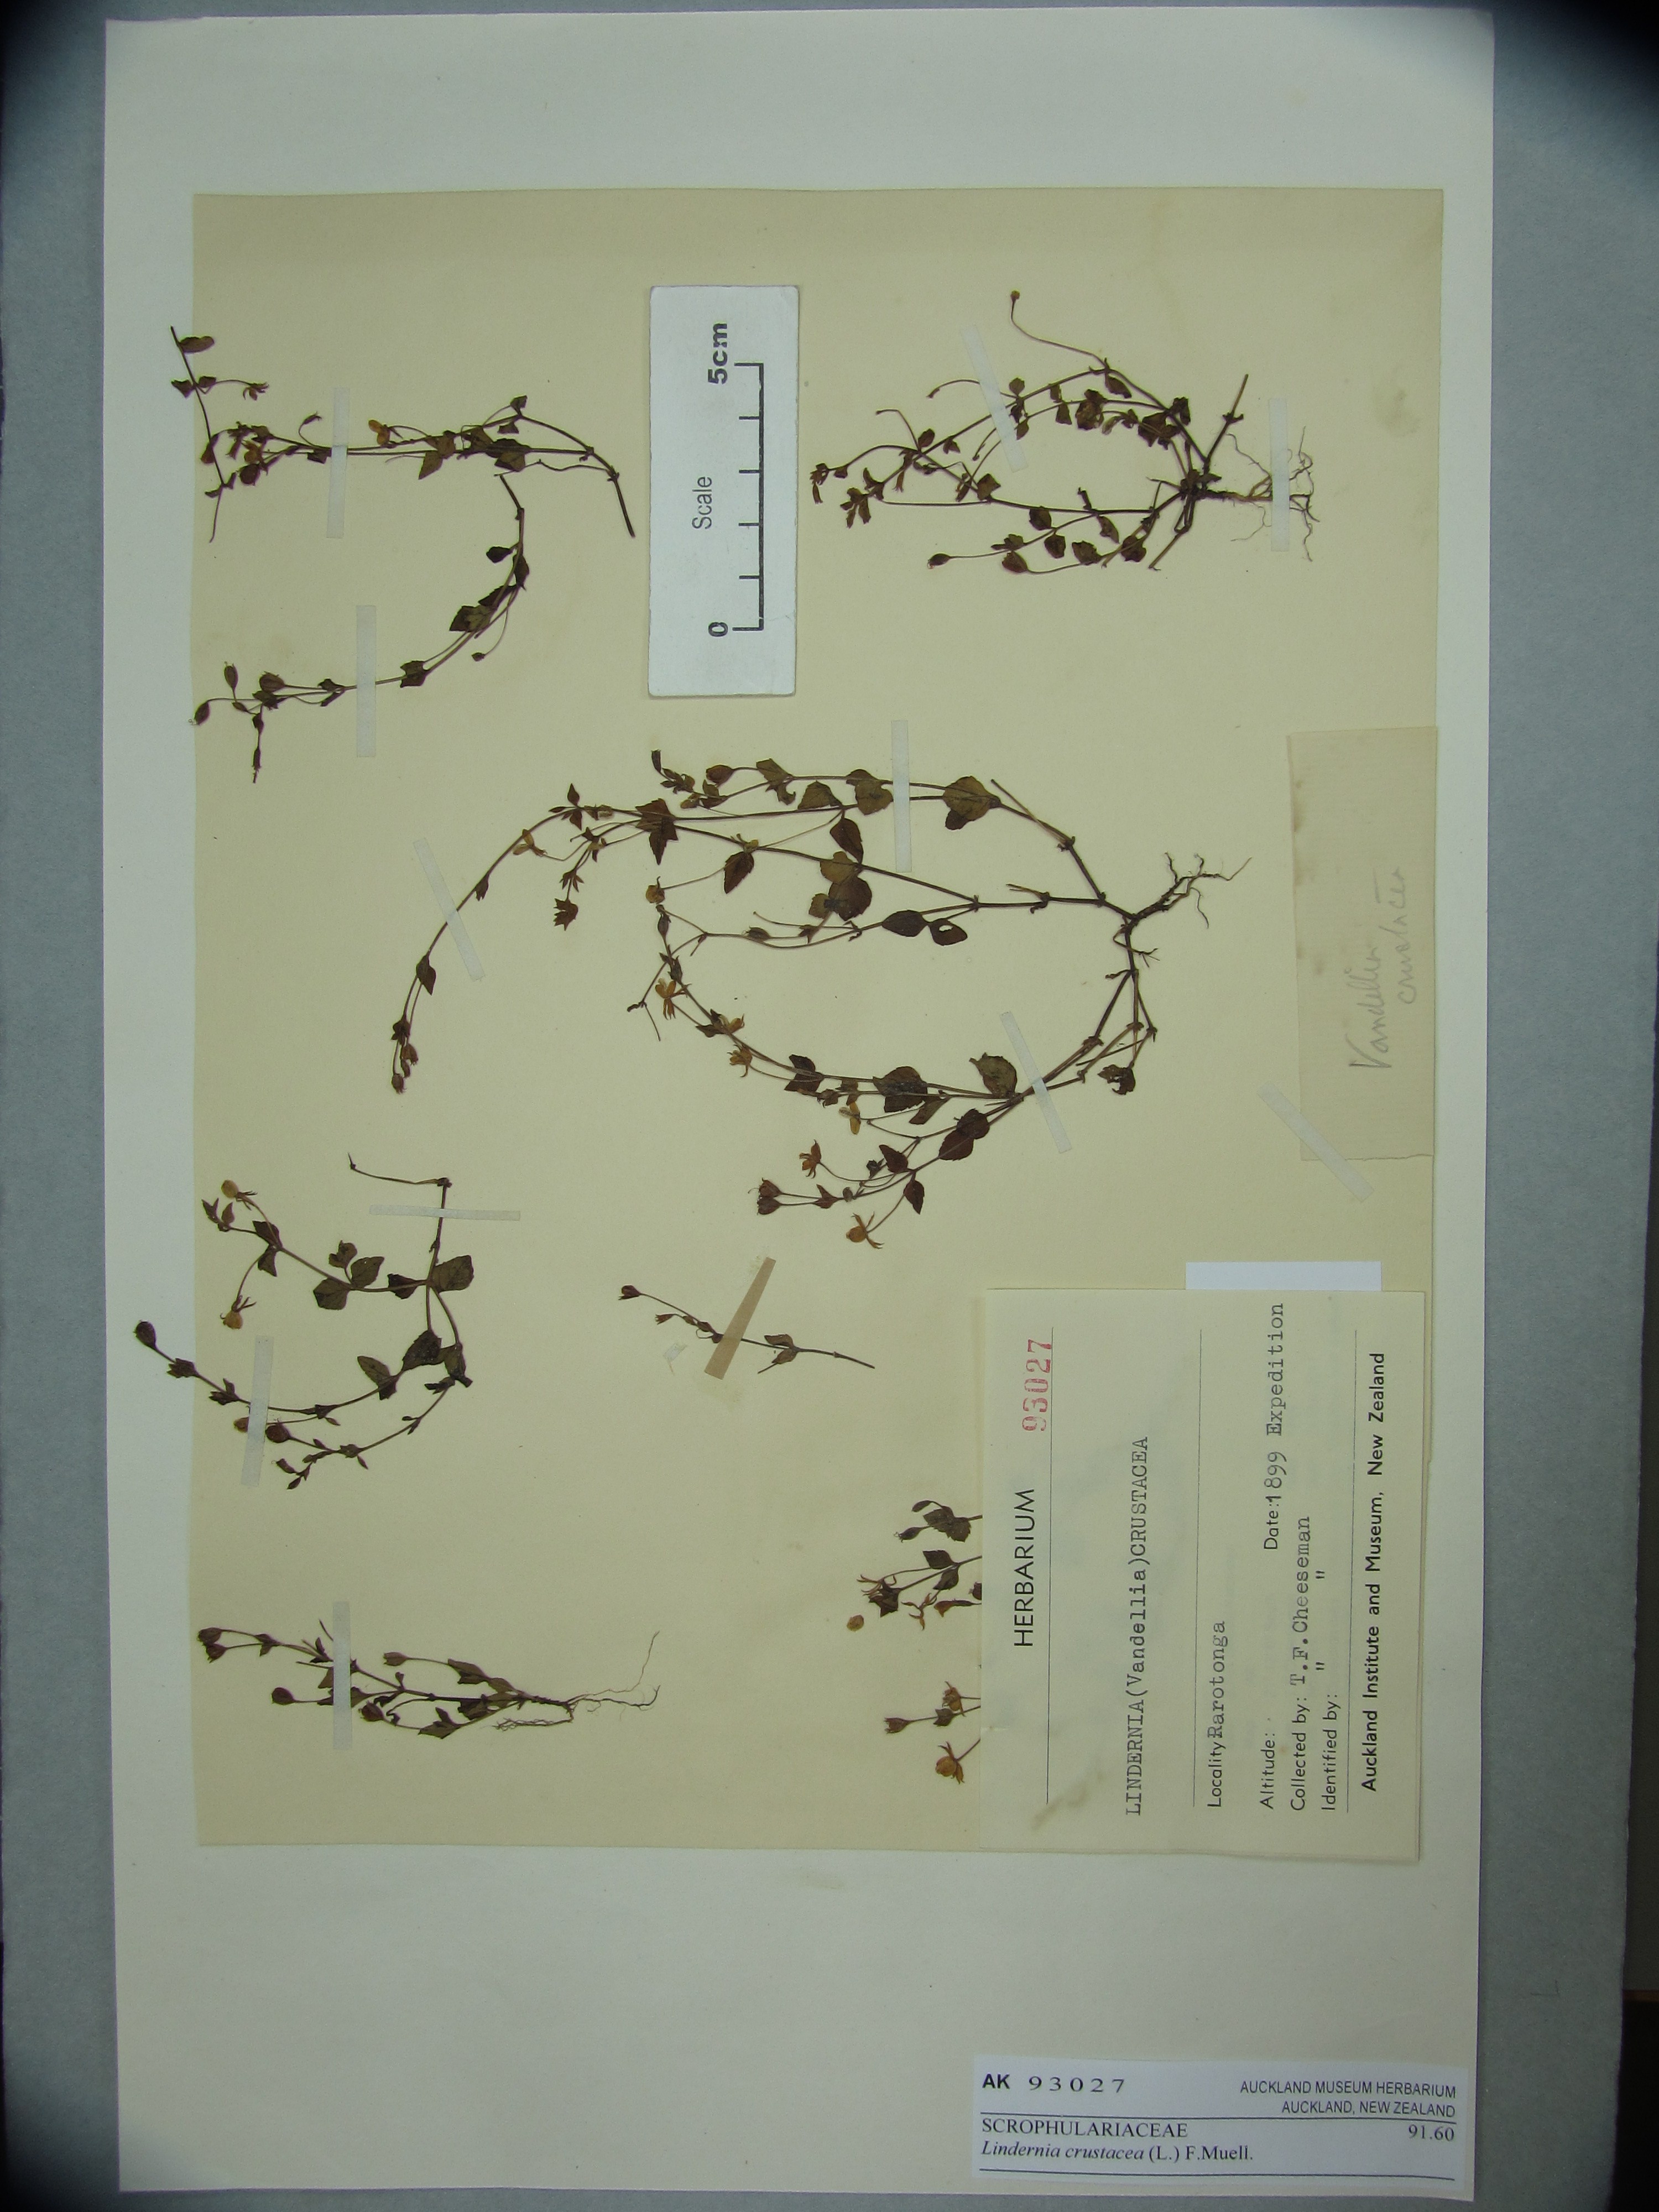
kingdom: Plantae
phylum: Tracheophyta
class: Magnoliopsida
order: Lamiales
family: Linderniaceae
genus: Torenia
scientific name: Torenia crustacea
